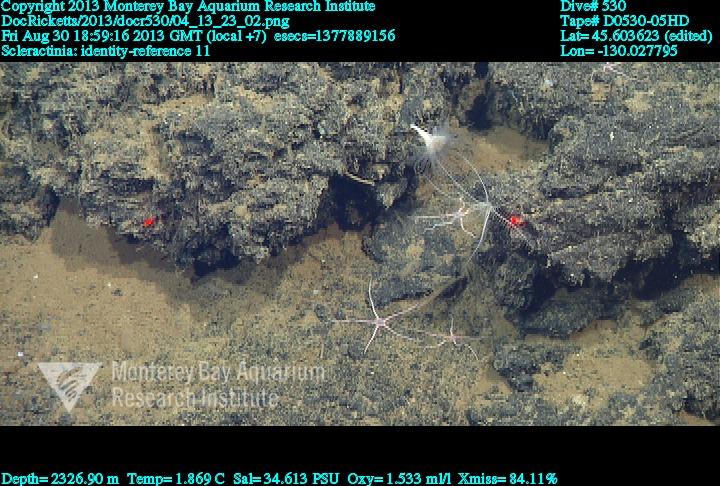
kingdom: Animalia
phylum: Cnidaria
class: Anthozoa
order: Scleractinia
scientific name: Scleractinia
